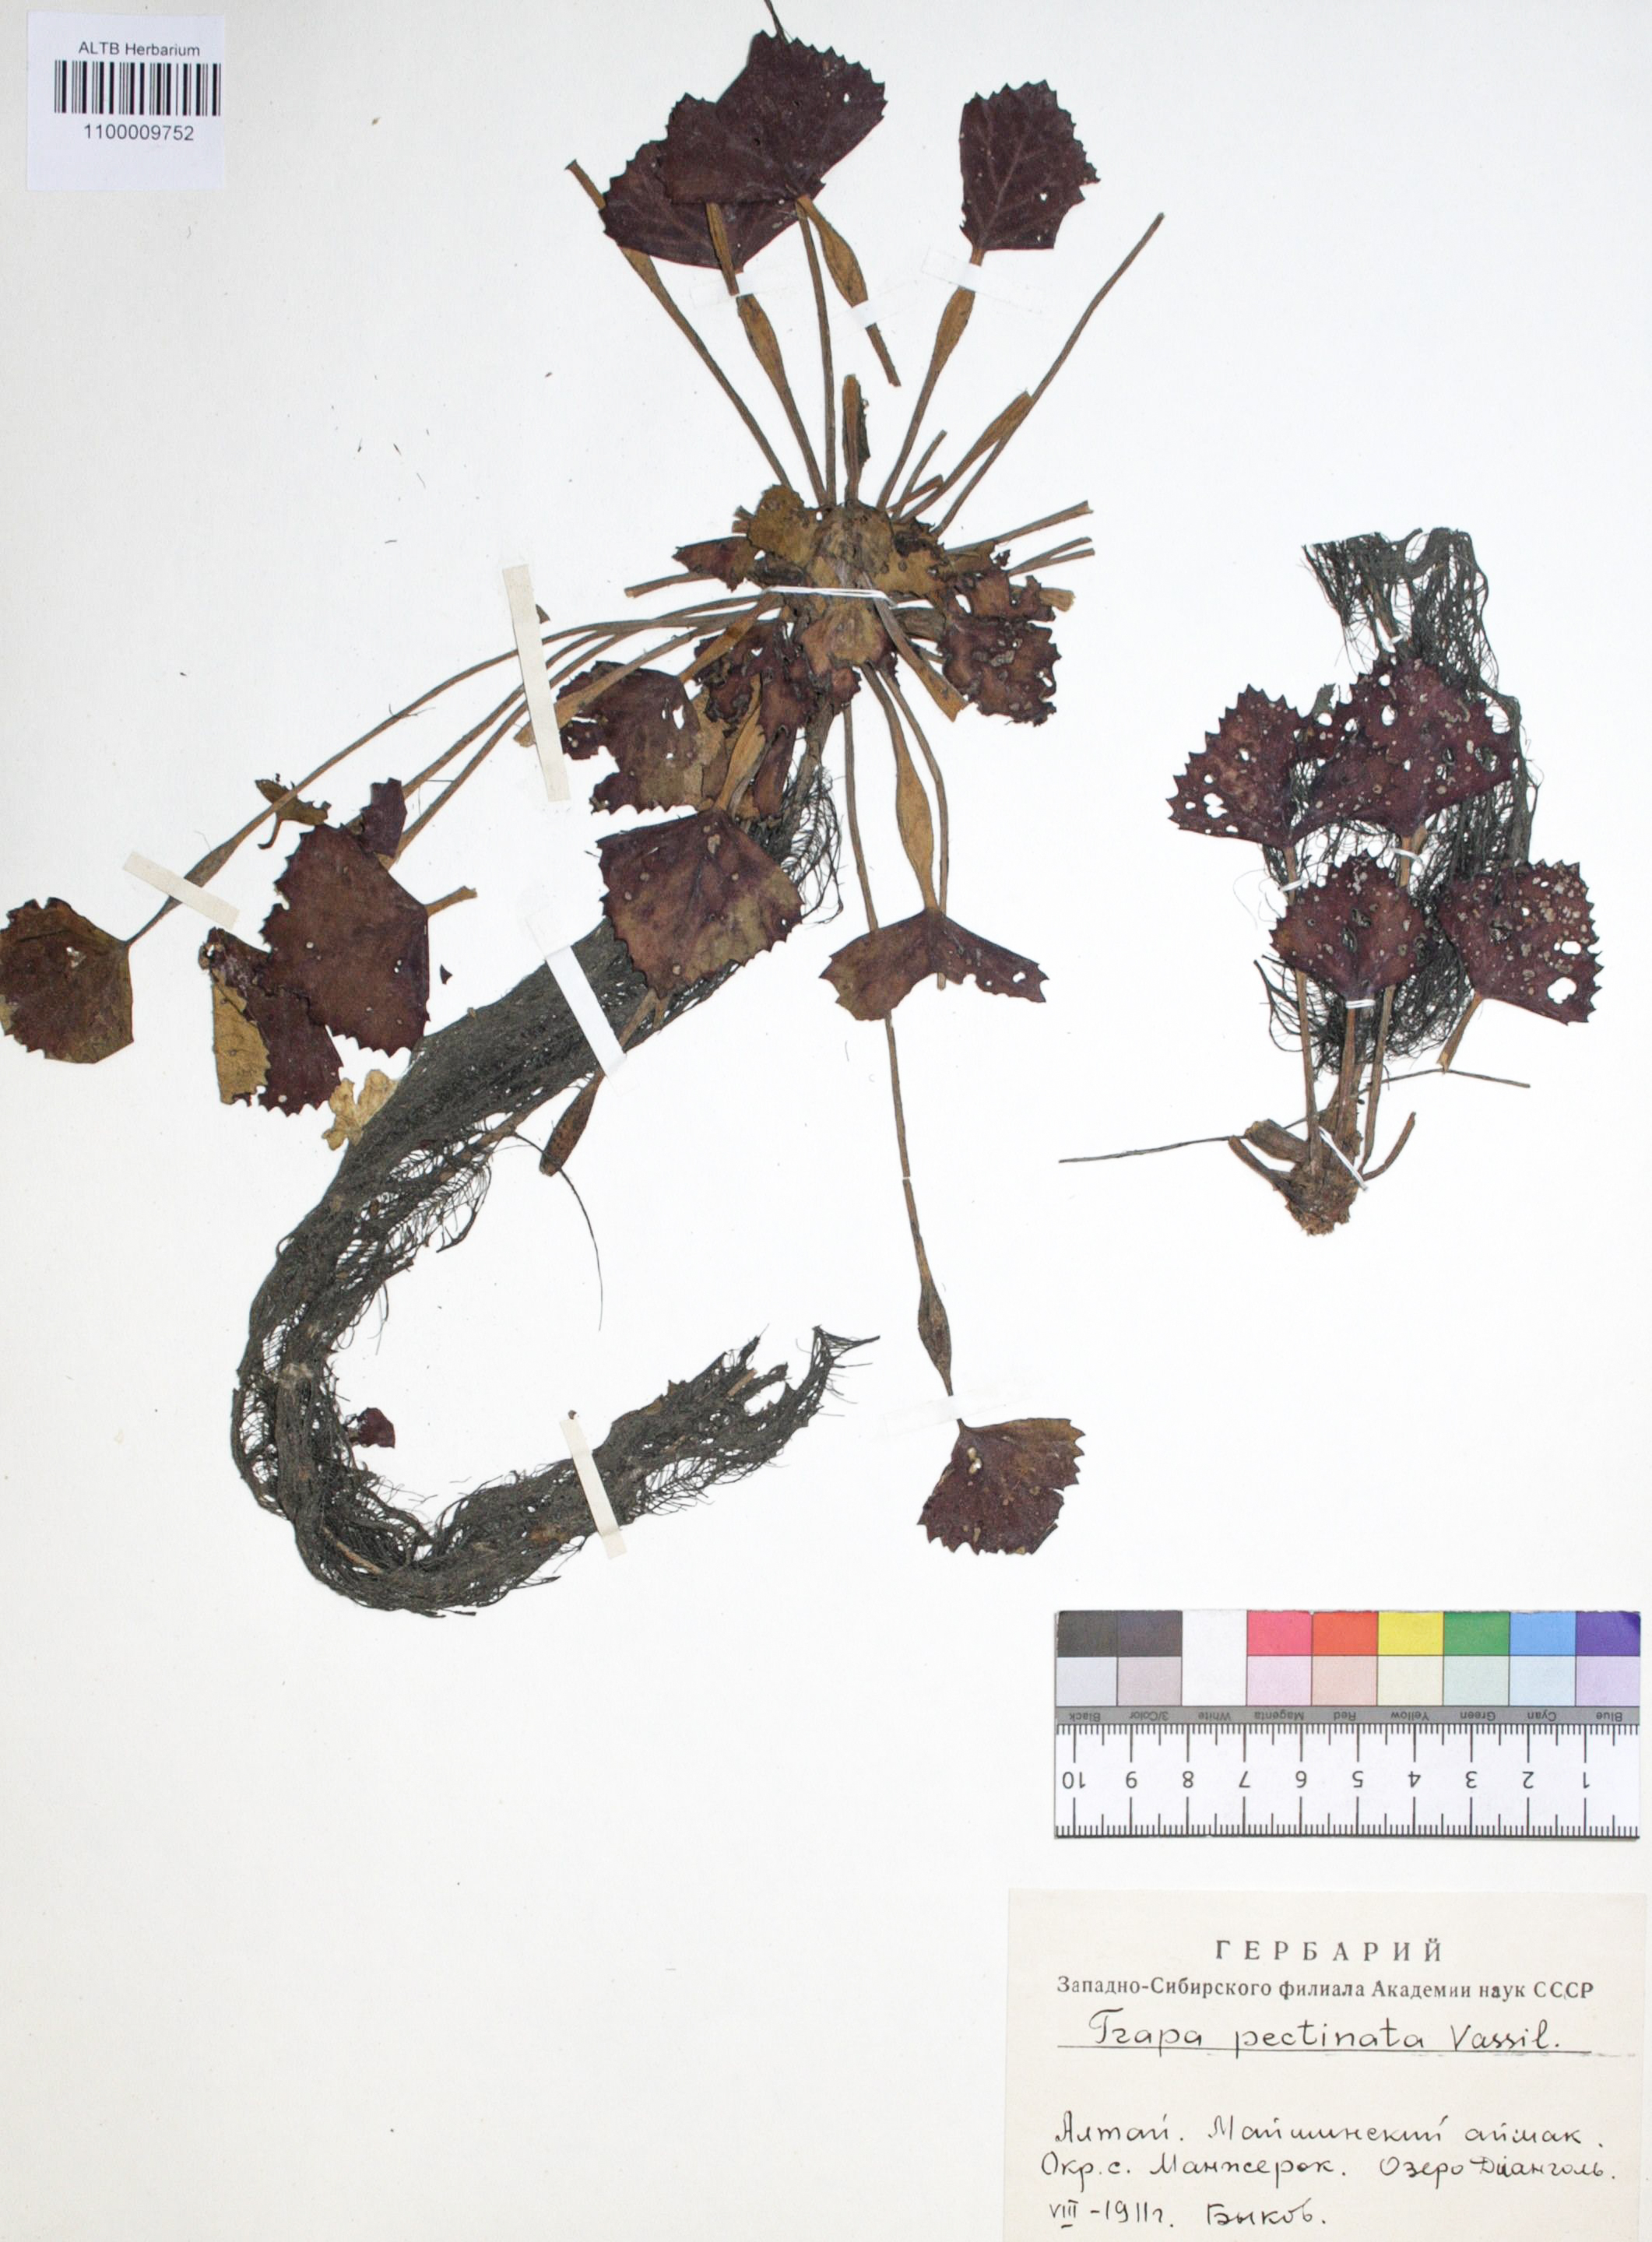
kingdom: Plantae
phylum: Tracheophyta
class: Magnoliopsida
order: Myrtales
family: Lythraceae
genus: Trapa
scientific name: Trapa natans
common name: Water chestnut
